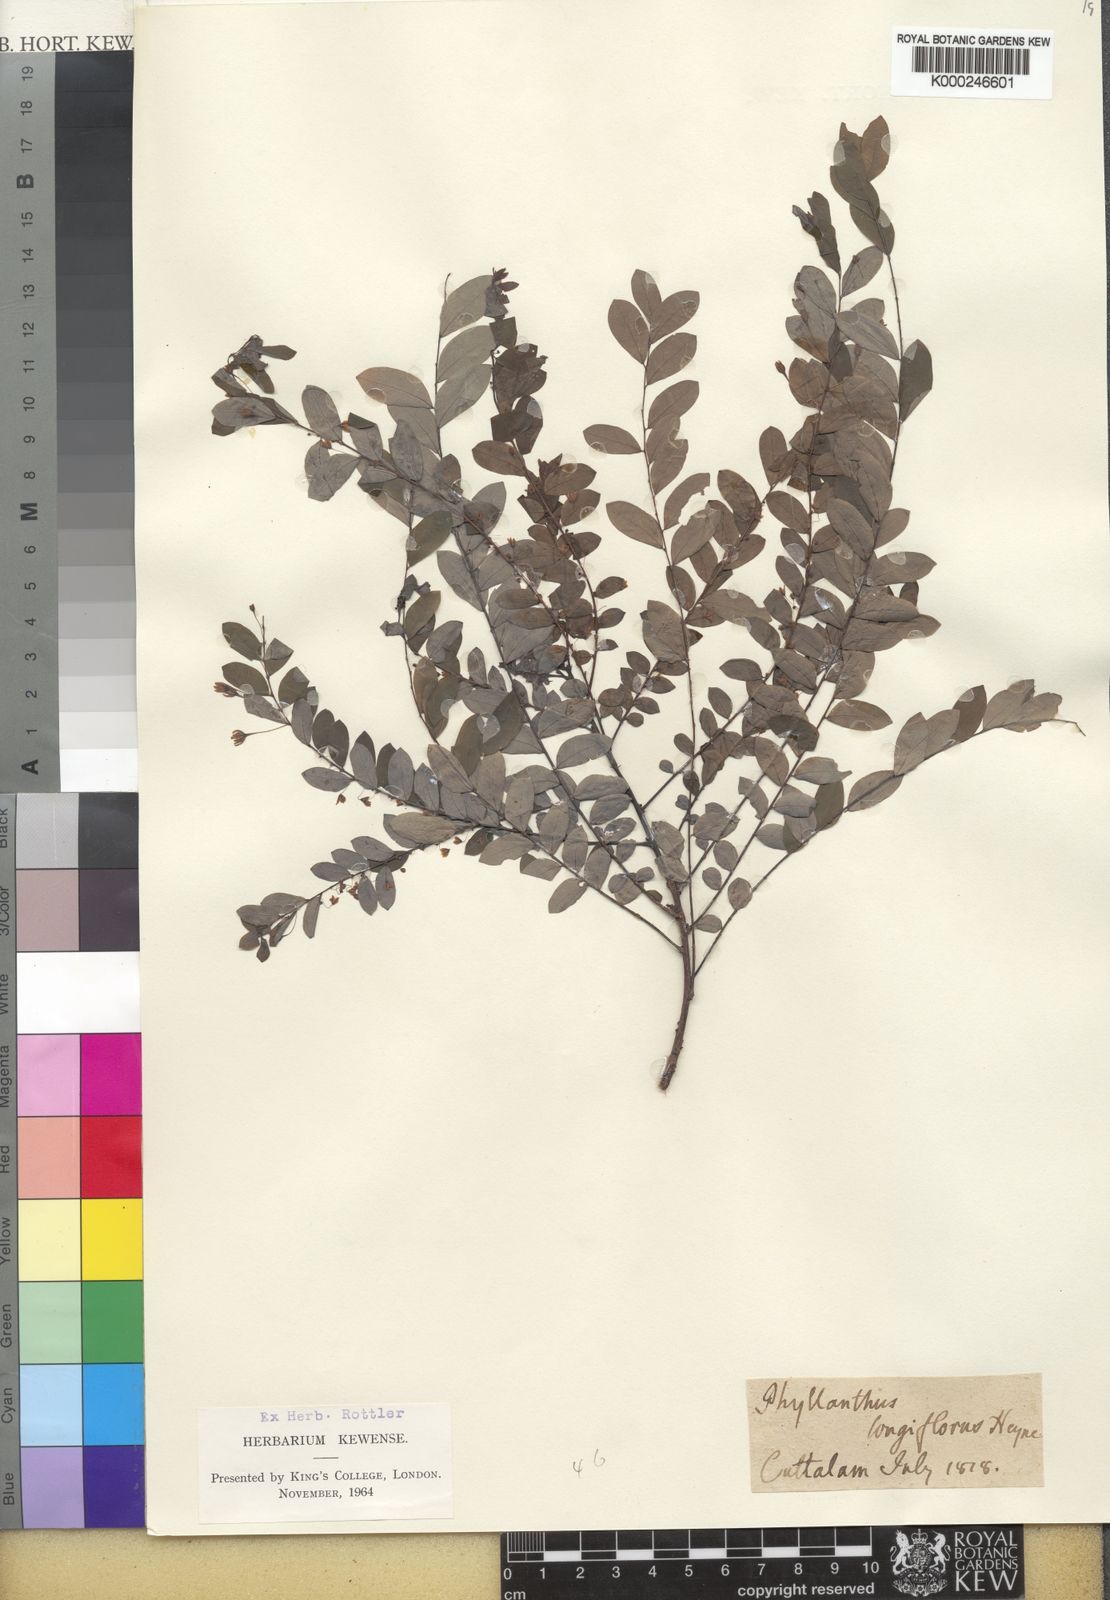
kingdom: Plantae
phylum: Tracheophyta
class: Magnoliopsida
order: Malpighiales
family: Phyllanthaceae
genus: Phyllanthus
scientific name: Phyllanthus
